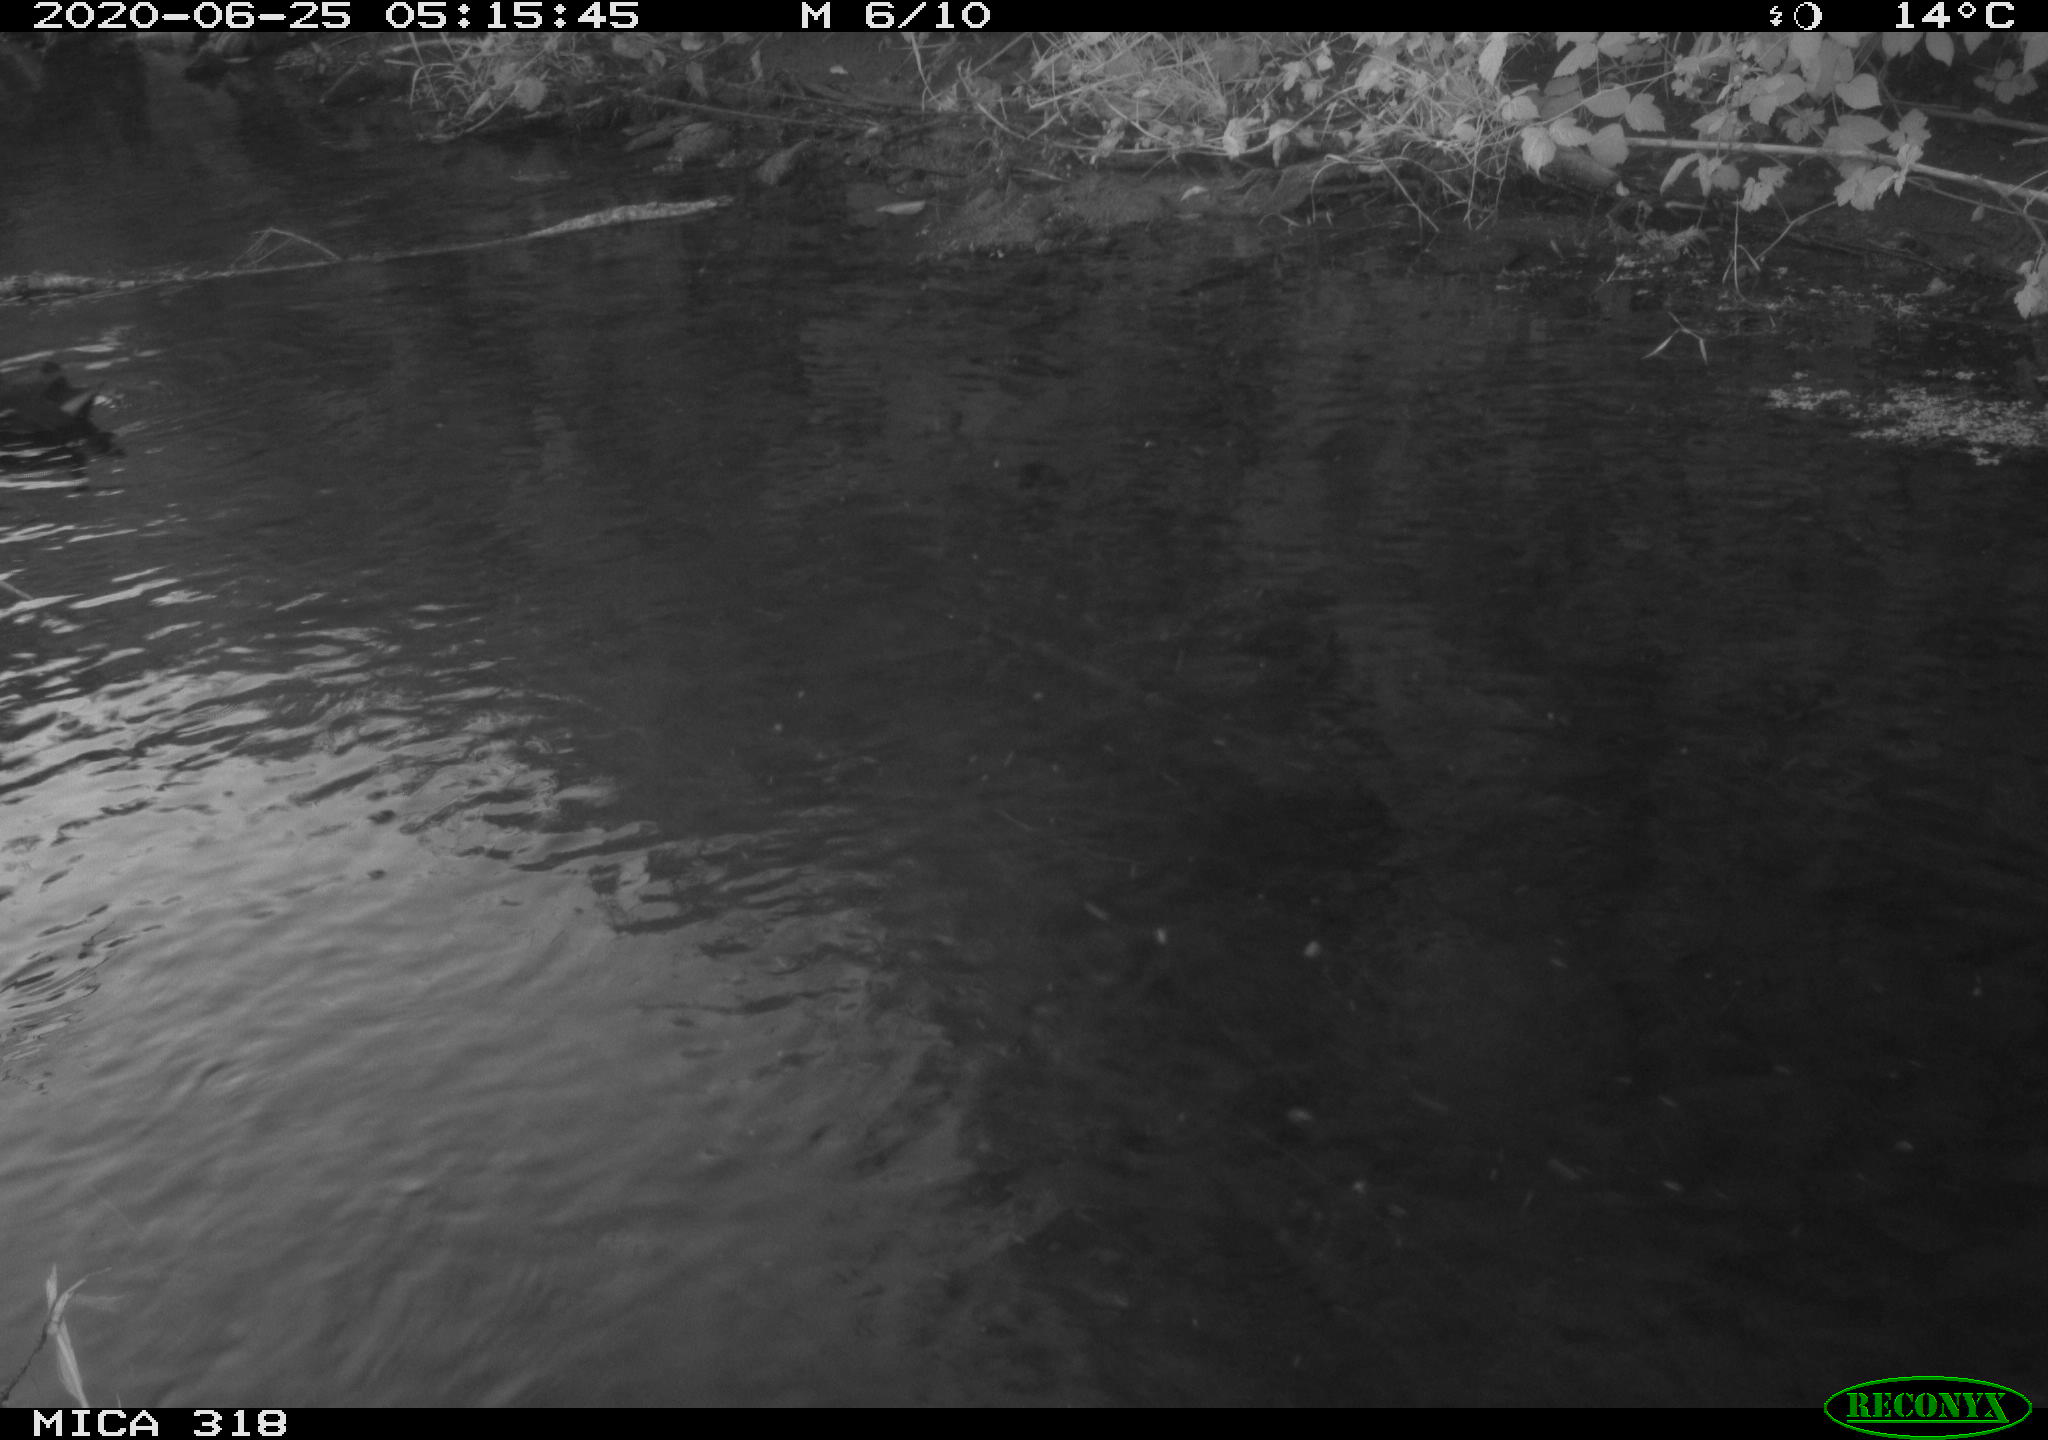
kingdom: Animalia
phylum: Chordata
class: Aves
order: Gruiformes
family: Rallidae
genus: Gallinula
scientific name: Gallinula chloropus
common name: Common moorhen
